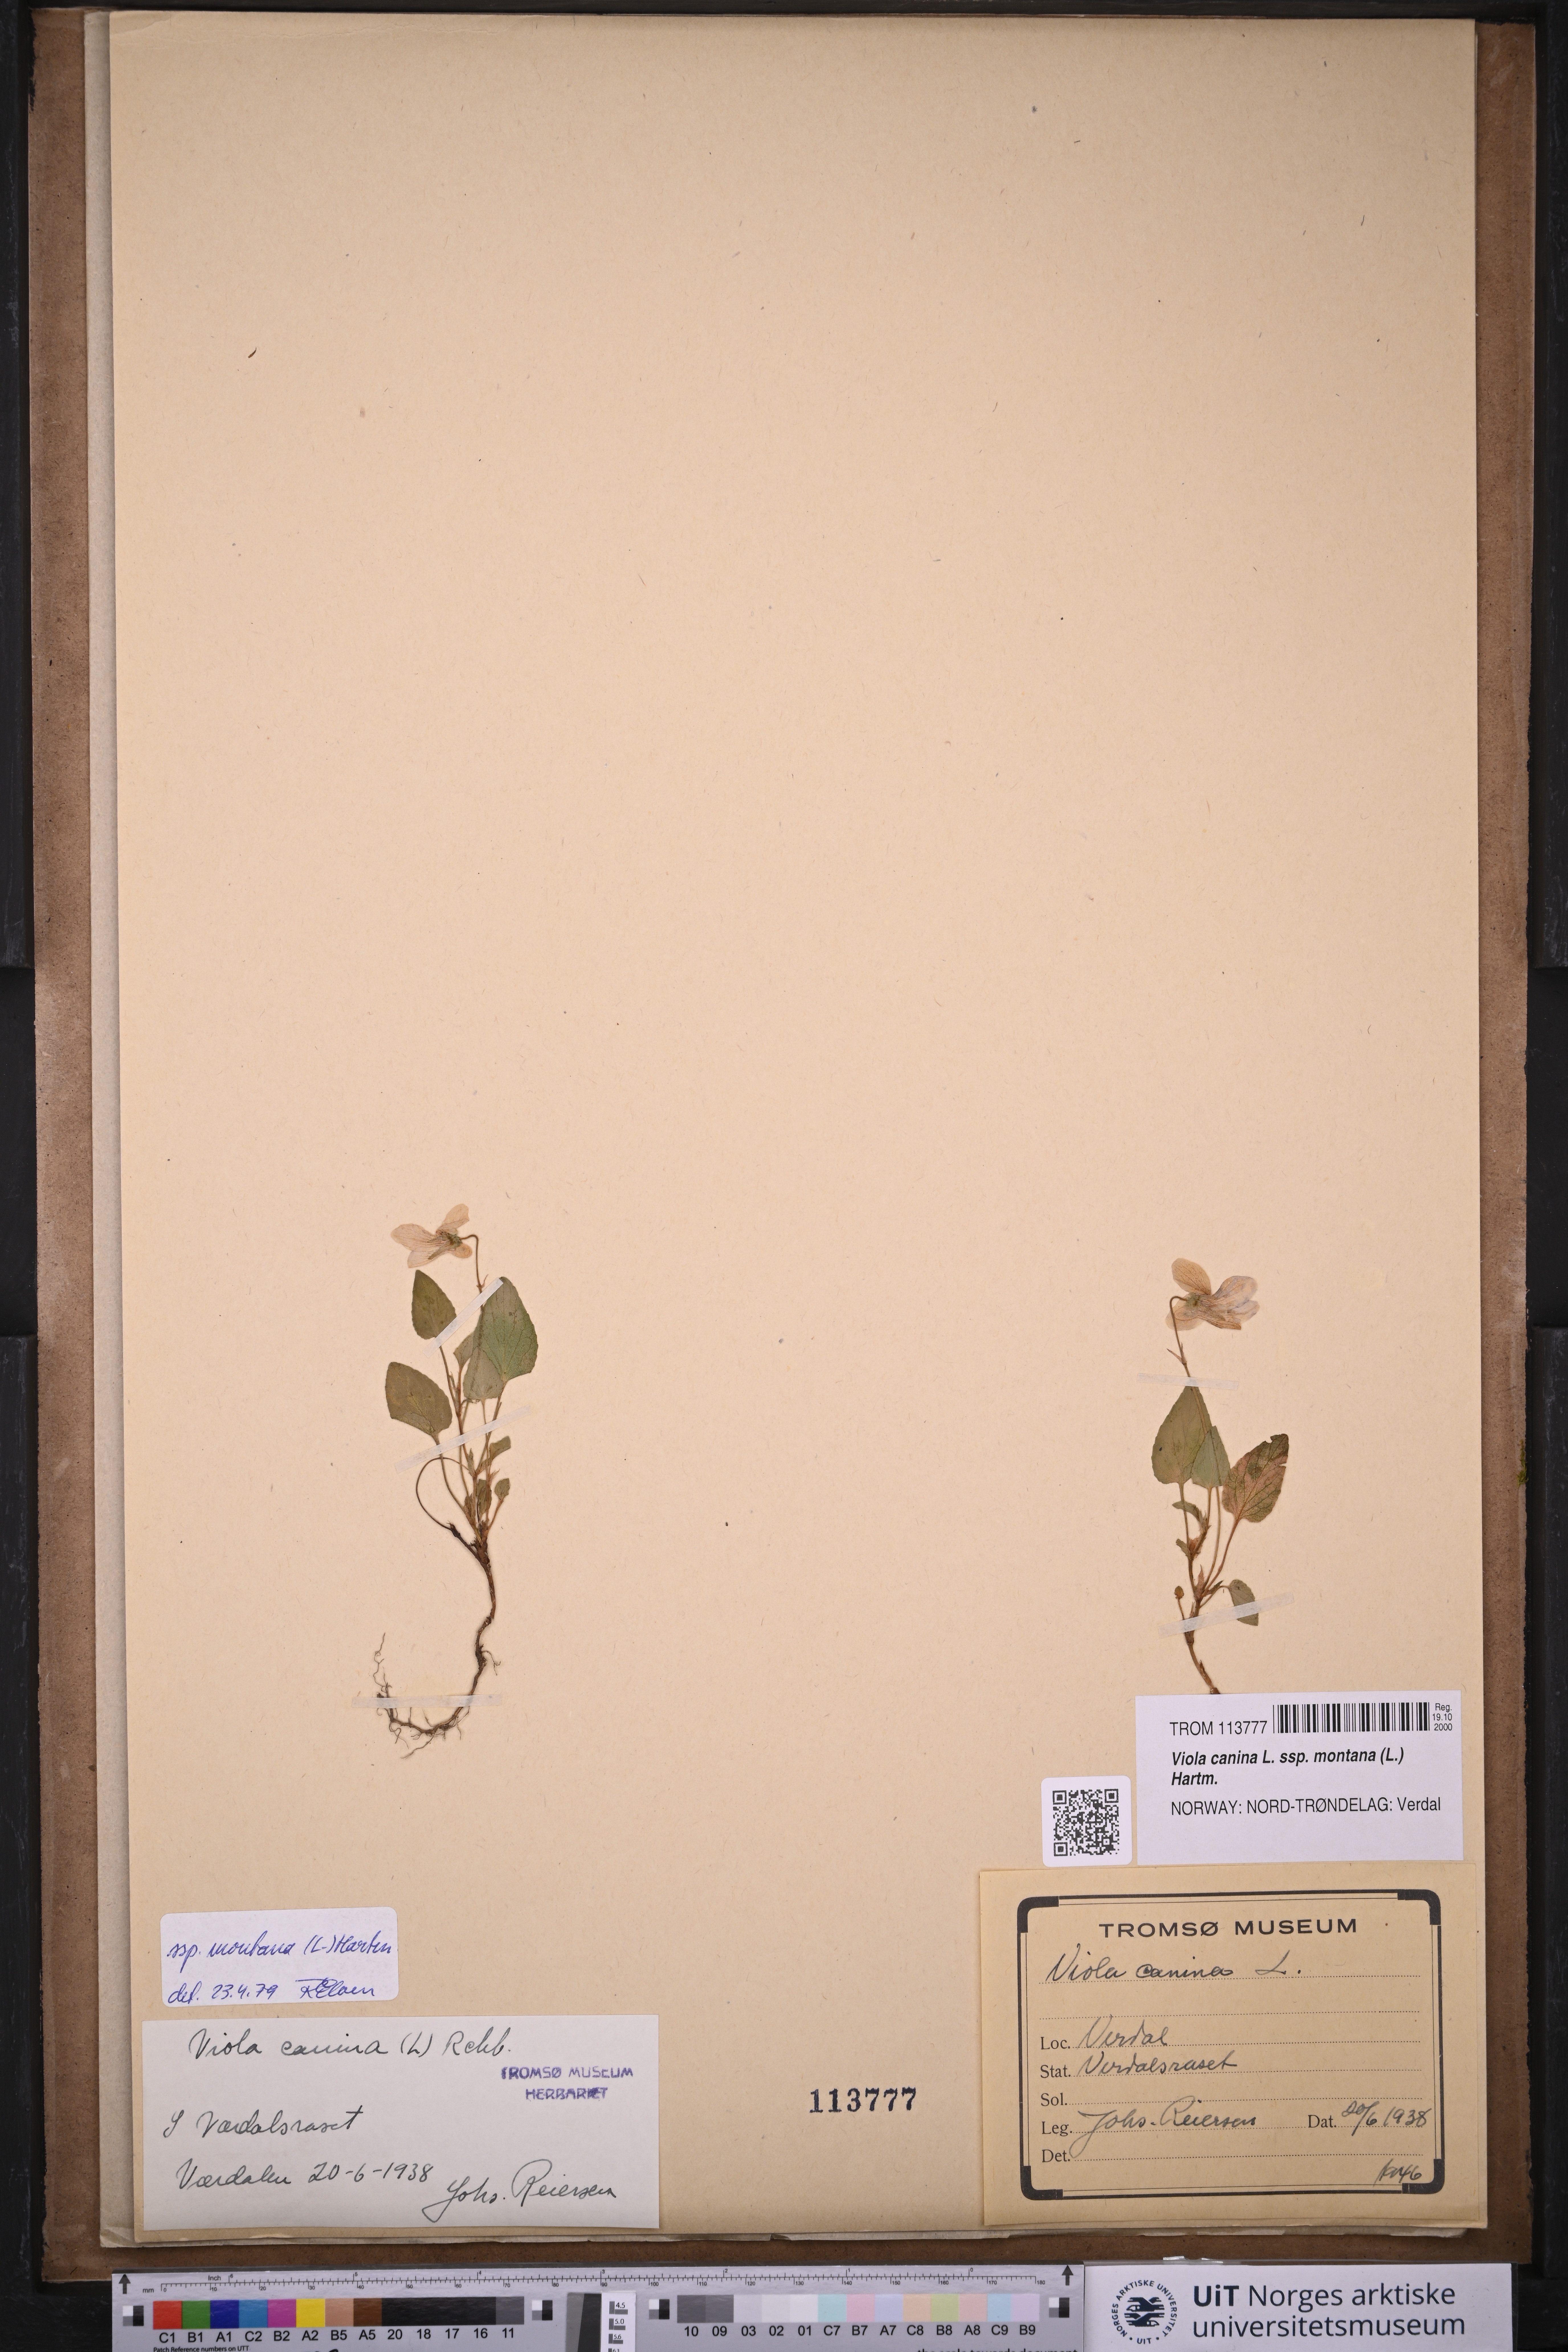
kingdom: Plantae
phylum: Tracheophyta
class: Magnoliopsida
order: Malpighiales
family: Violaceae
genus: Viola
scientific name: Viola ruppii
